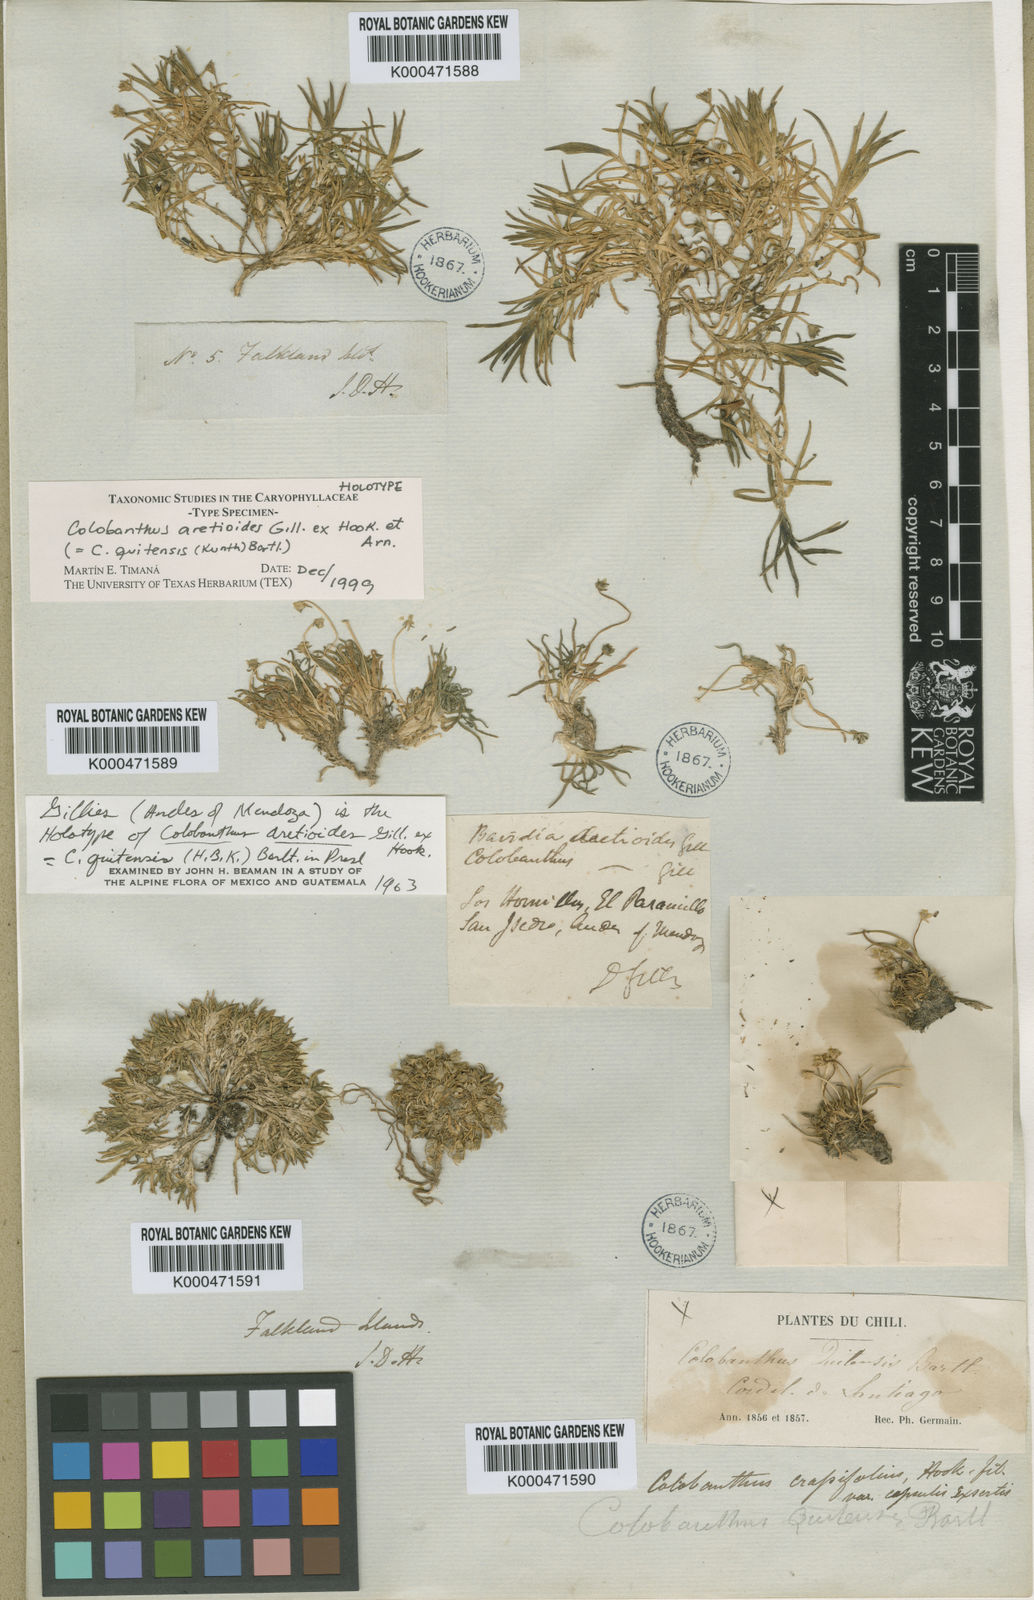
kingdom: Plantae
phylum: Tracheophyta
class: Magnoliopsida
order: Caryophyllales
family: Caryophyllaceae
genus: Colobanthus
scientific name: Colobanthus quitensis
